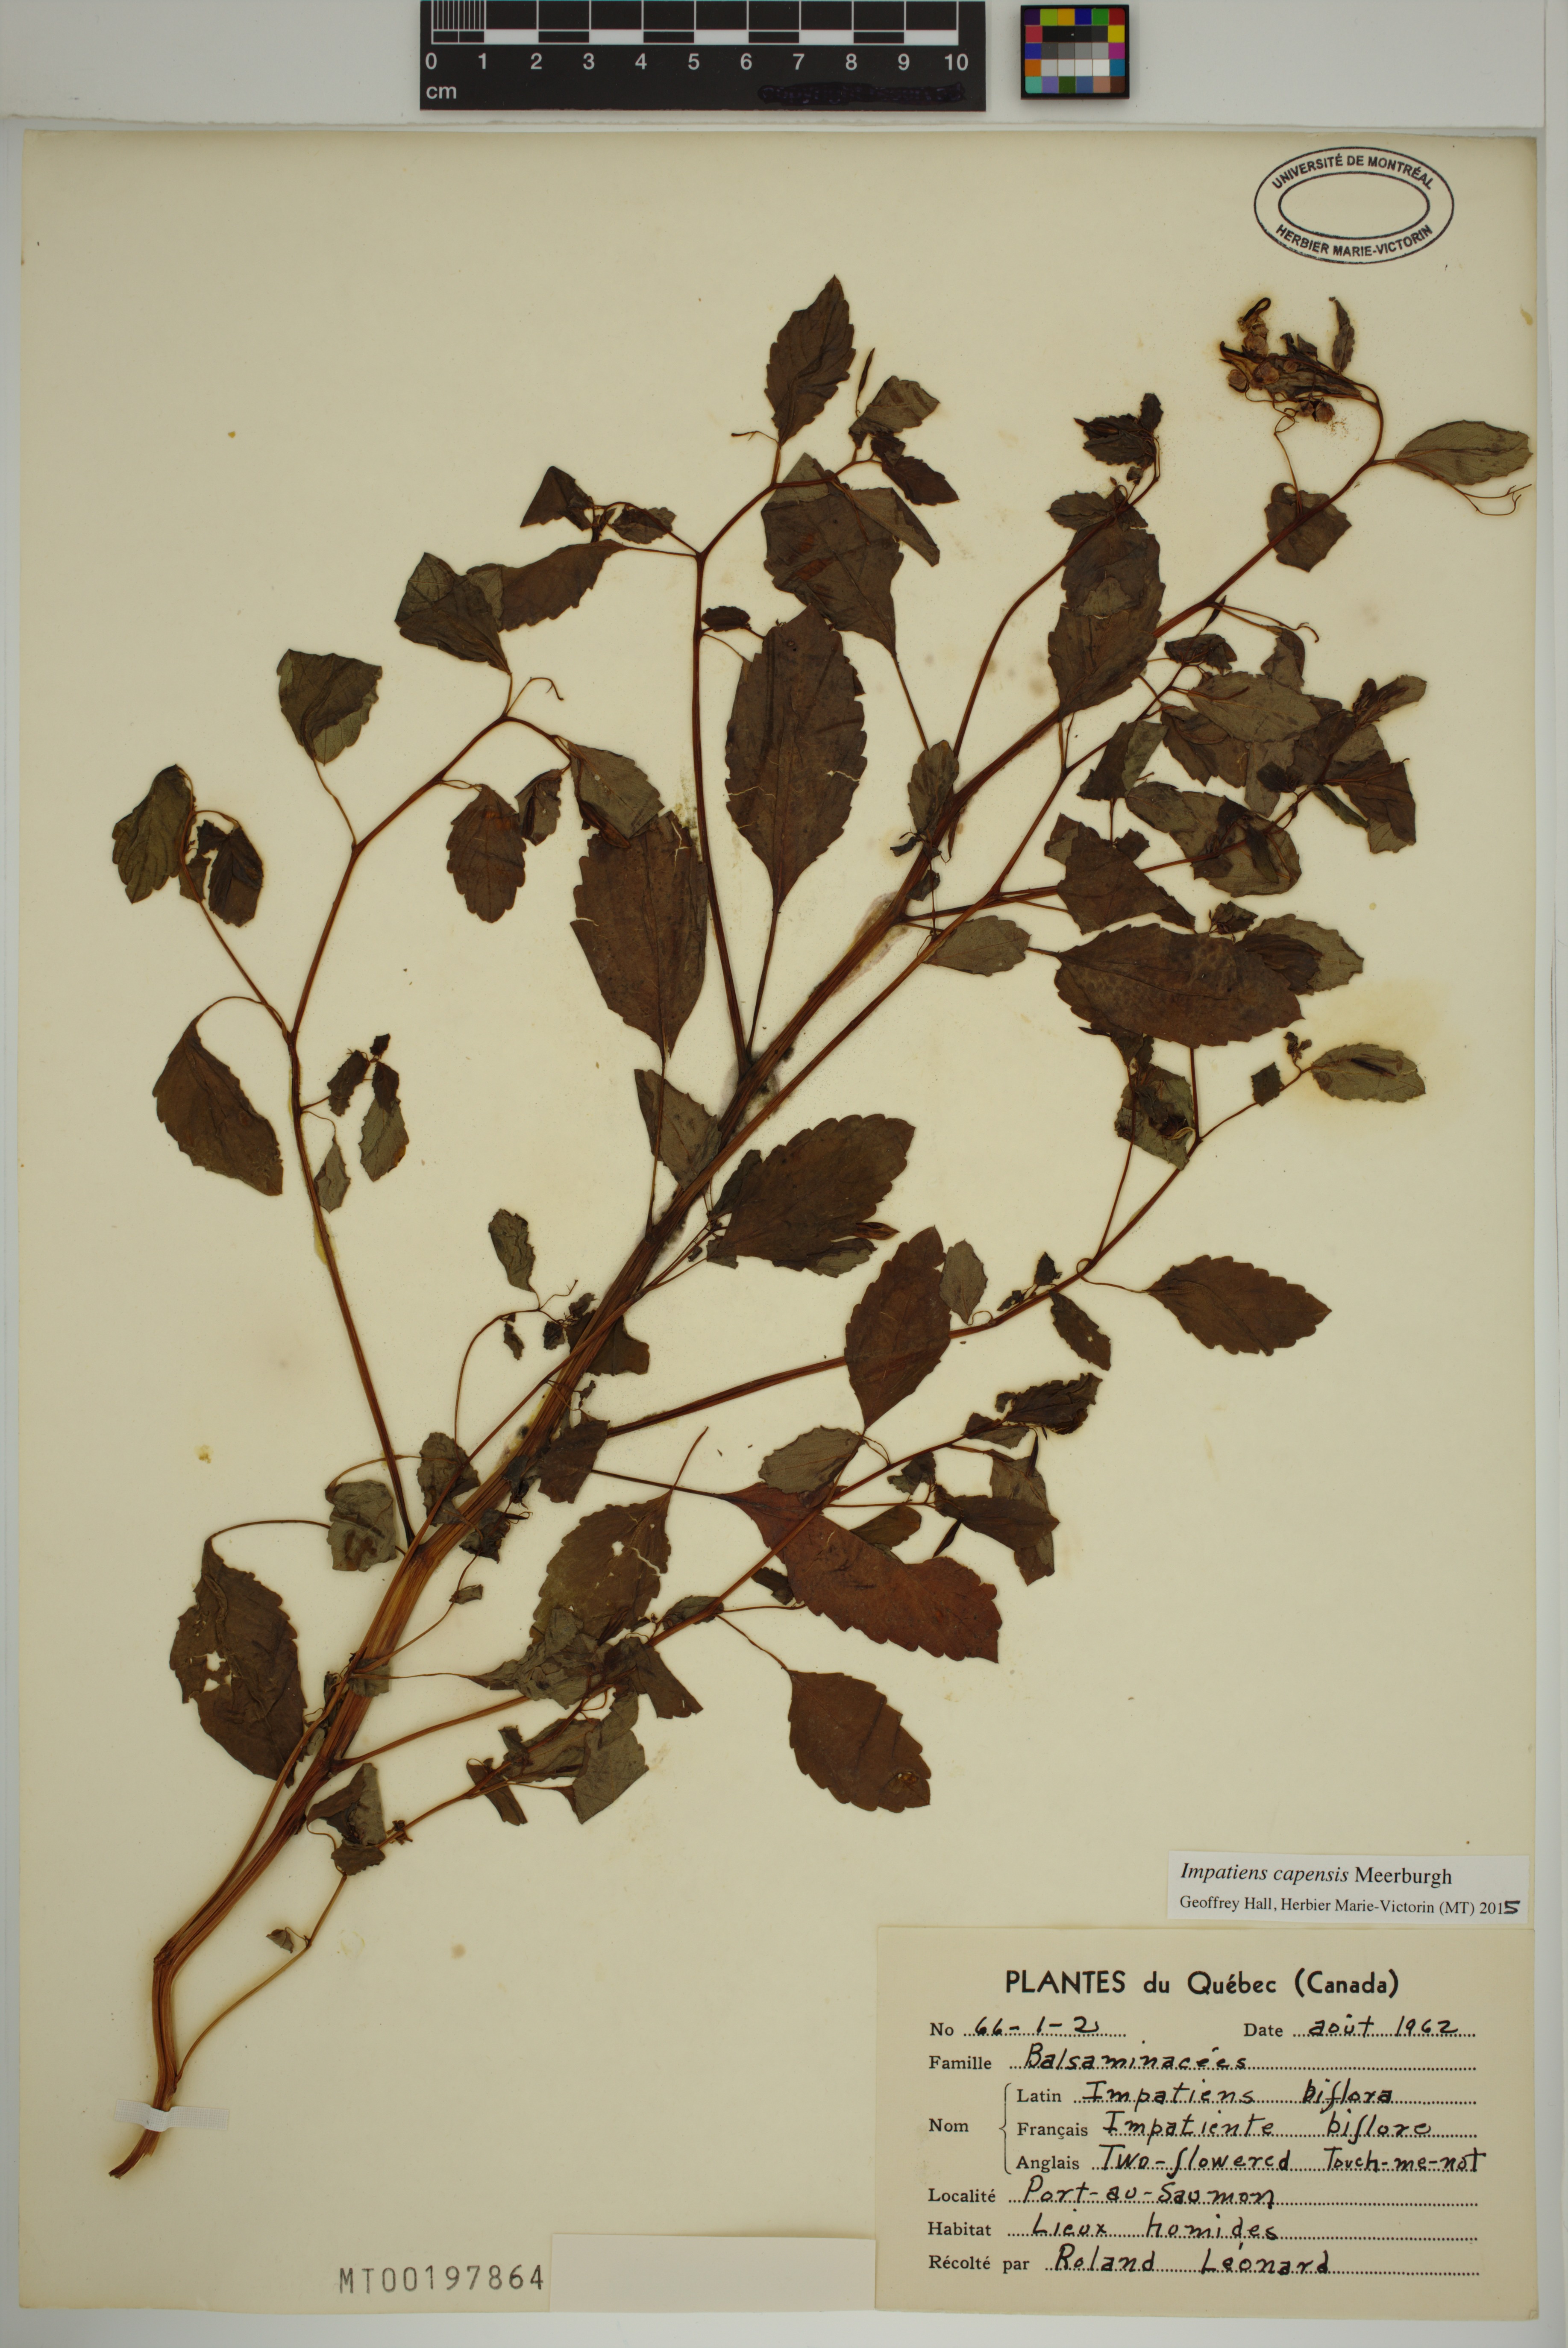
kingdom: Plantae
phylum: Tracheophyta
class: Magnoliopsida
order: Ericales
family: Balsaminaceae
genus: Impatiens
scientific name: Impatiens capensis
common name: Orange balsam
